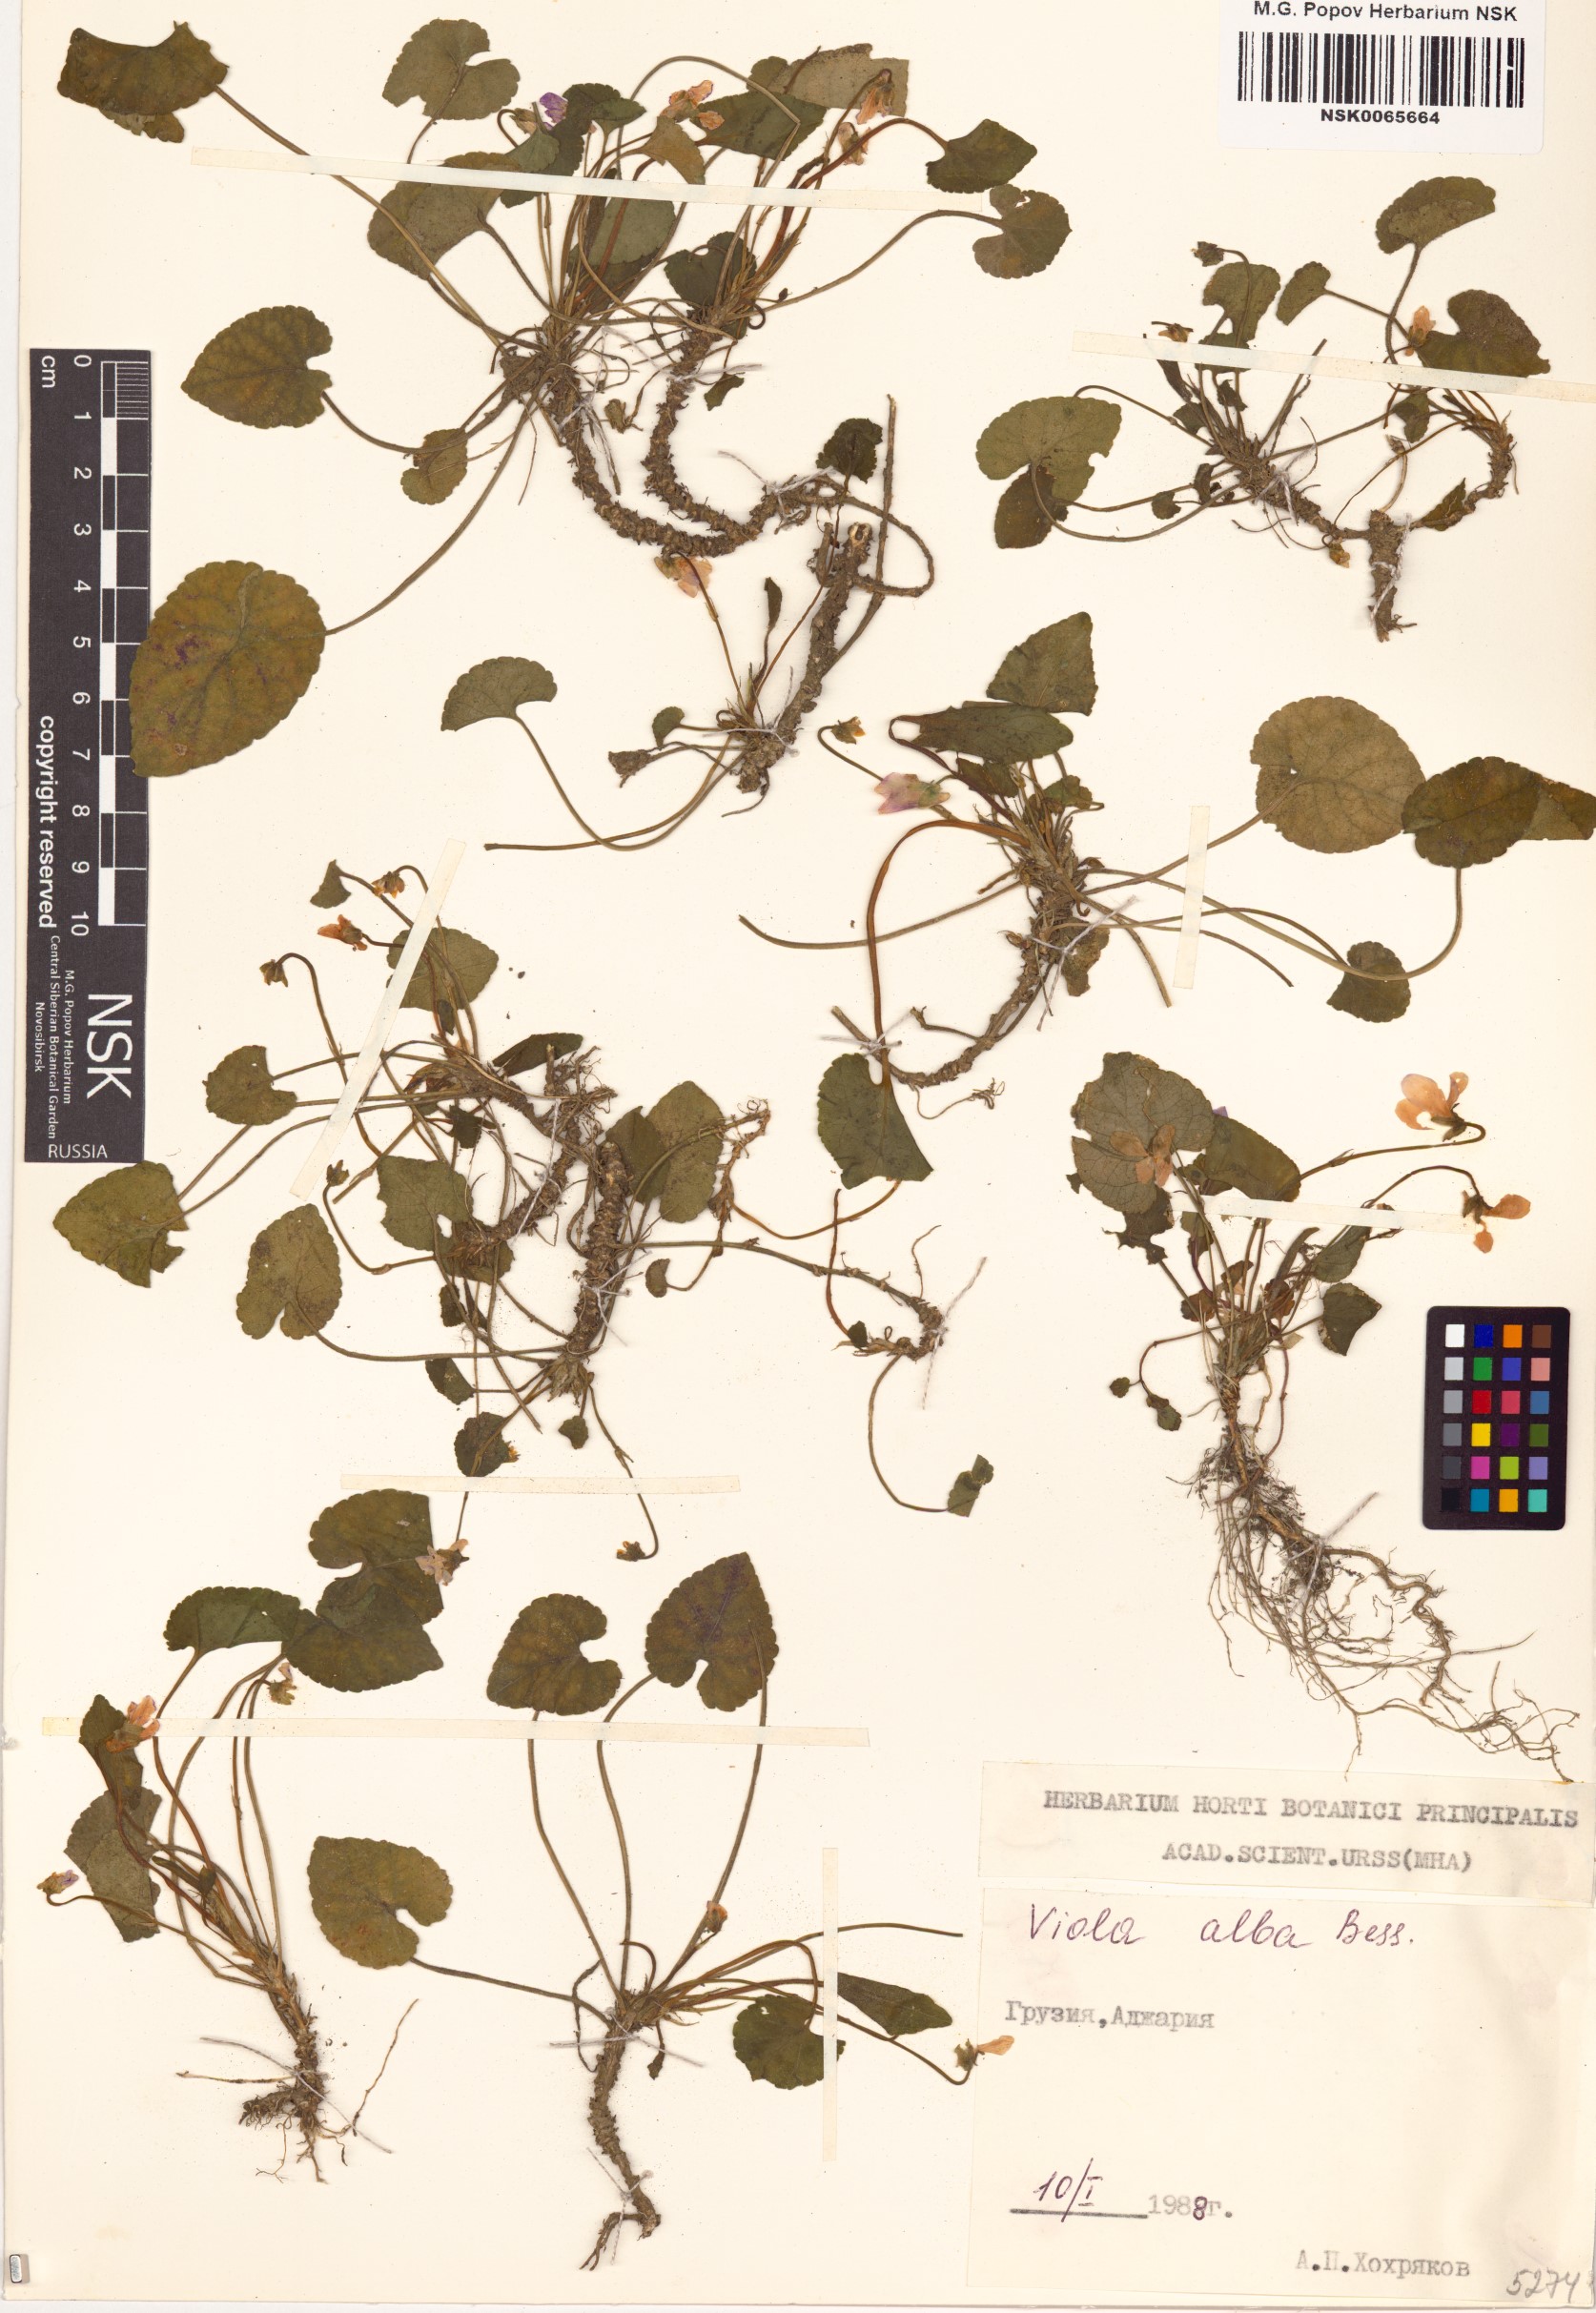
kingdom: Plantae
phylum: Tracheophyta
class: Magnoliopsida
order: Malpighiales
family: Violaceae
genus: Viola
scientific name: Viola alba
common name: White violet
